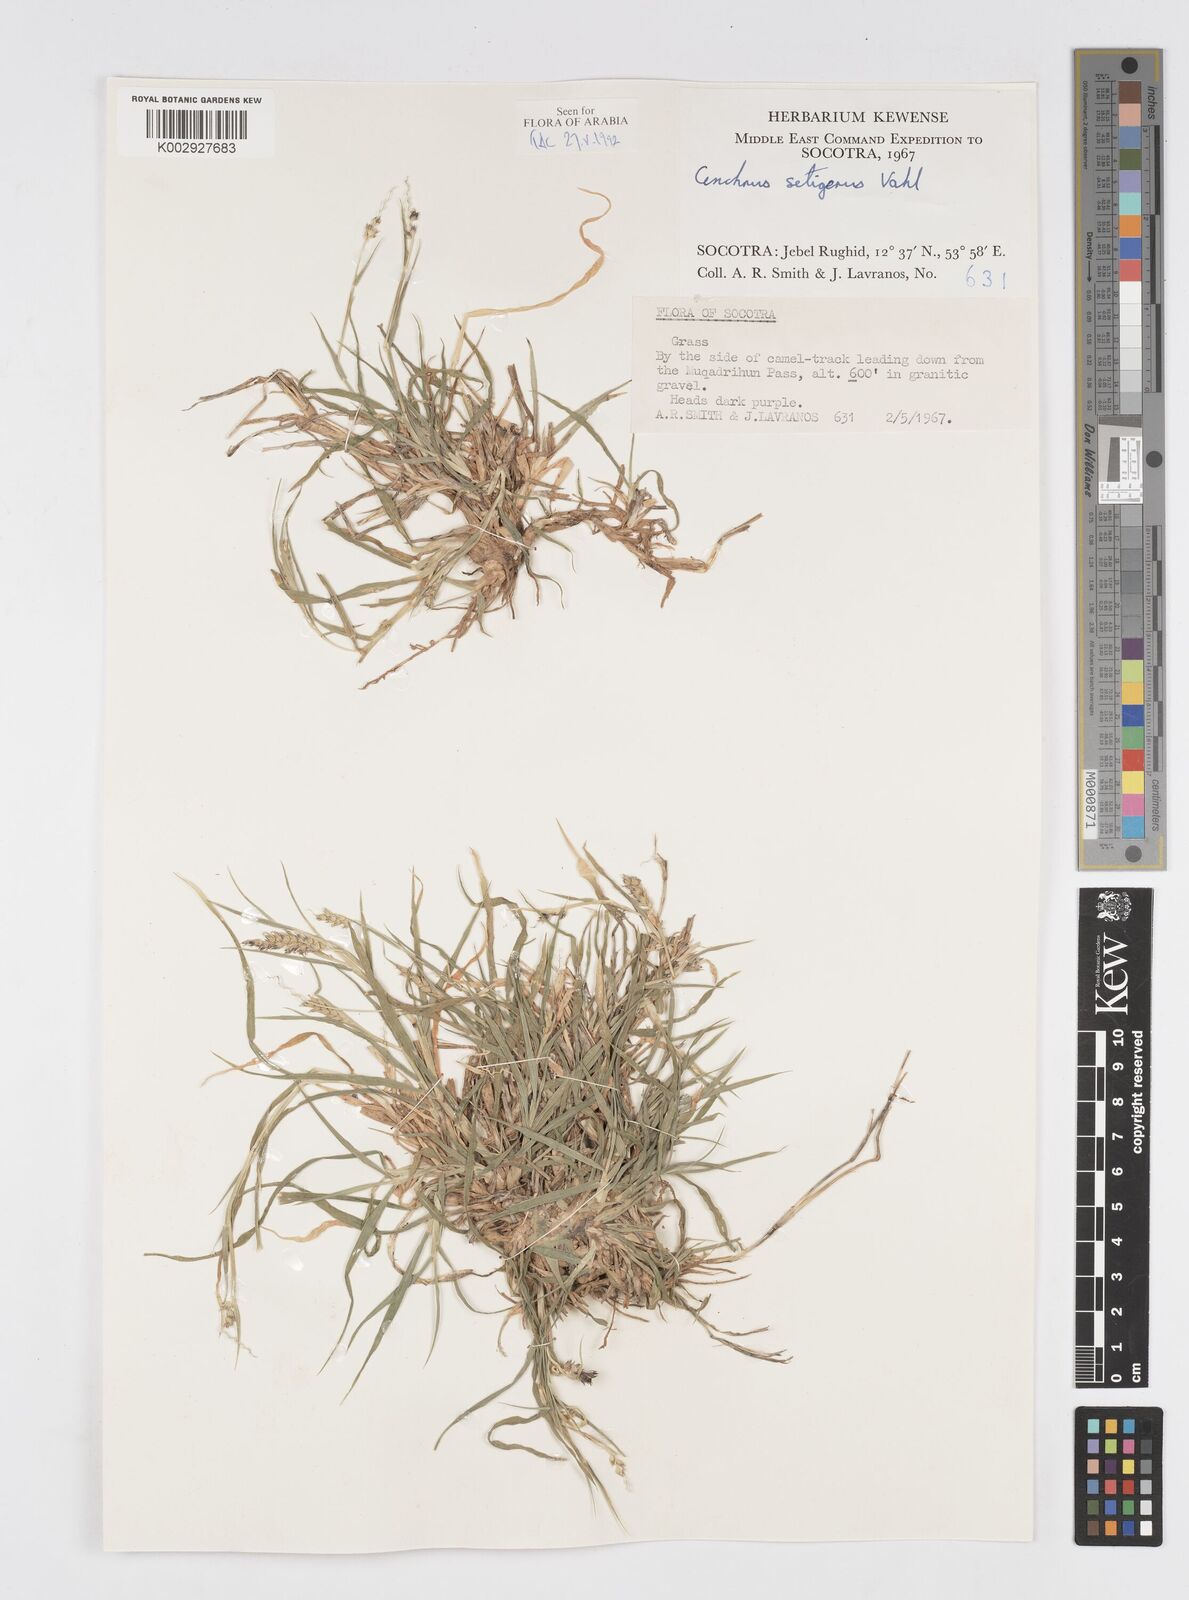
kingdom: Plantae
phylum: Tracheophyta
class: Liliopsida
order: Poales
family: Poaceae
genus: Cenchrus
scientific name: Cenchrus setigerus
